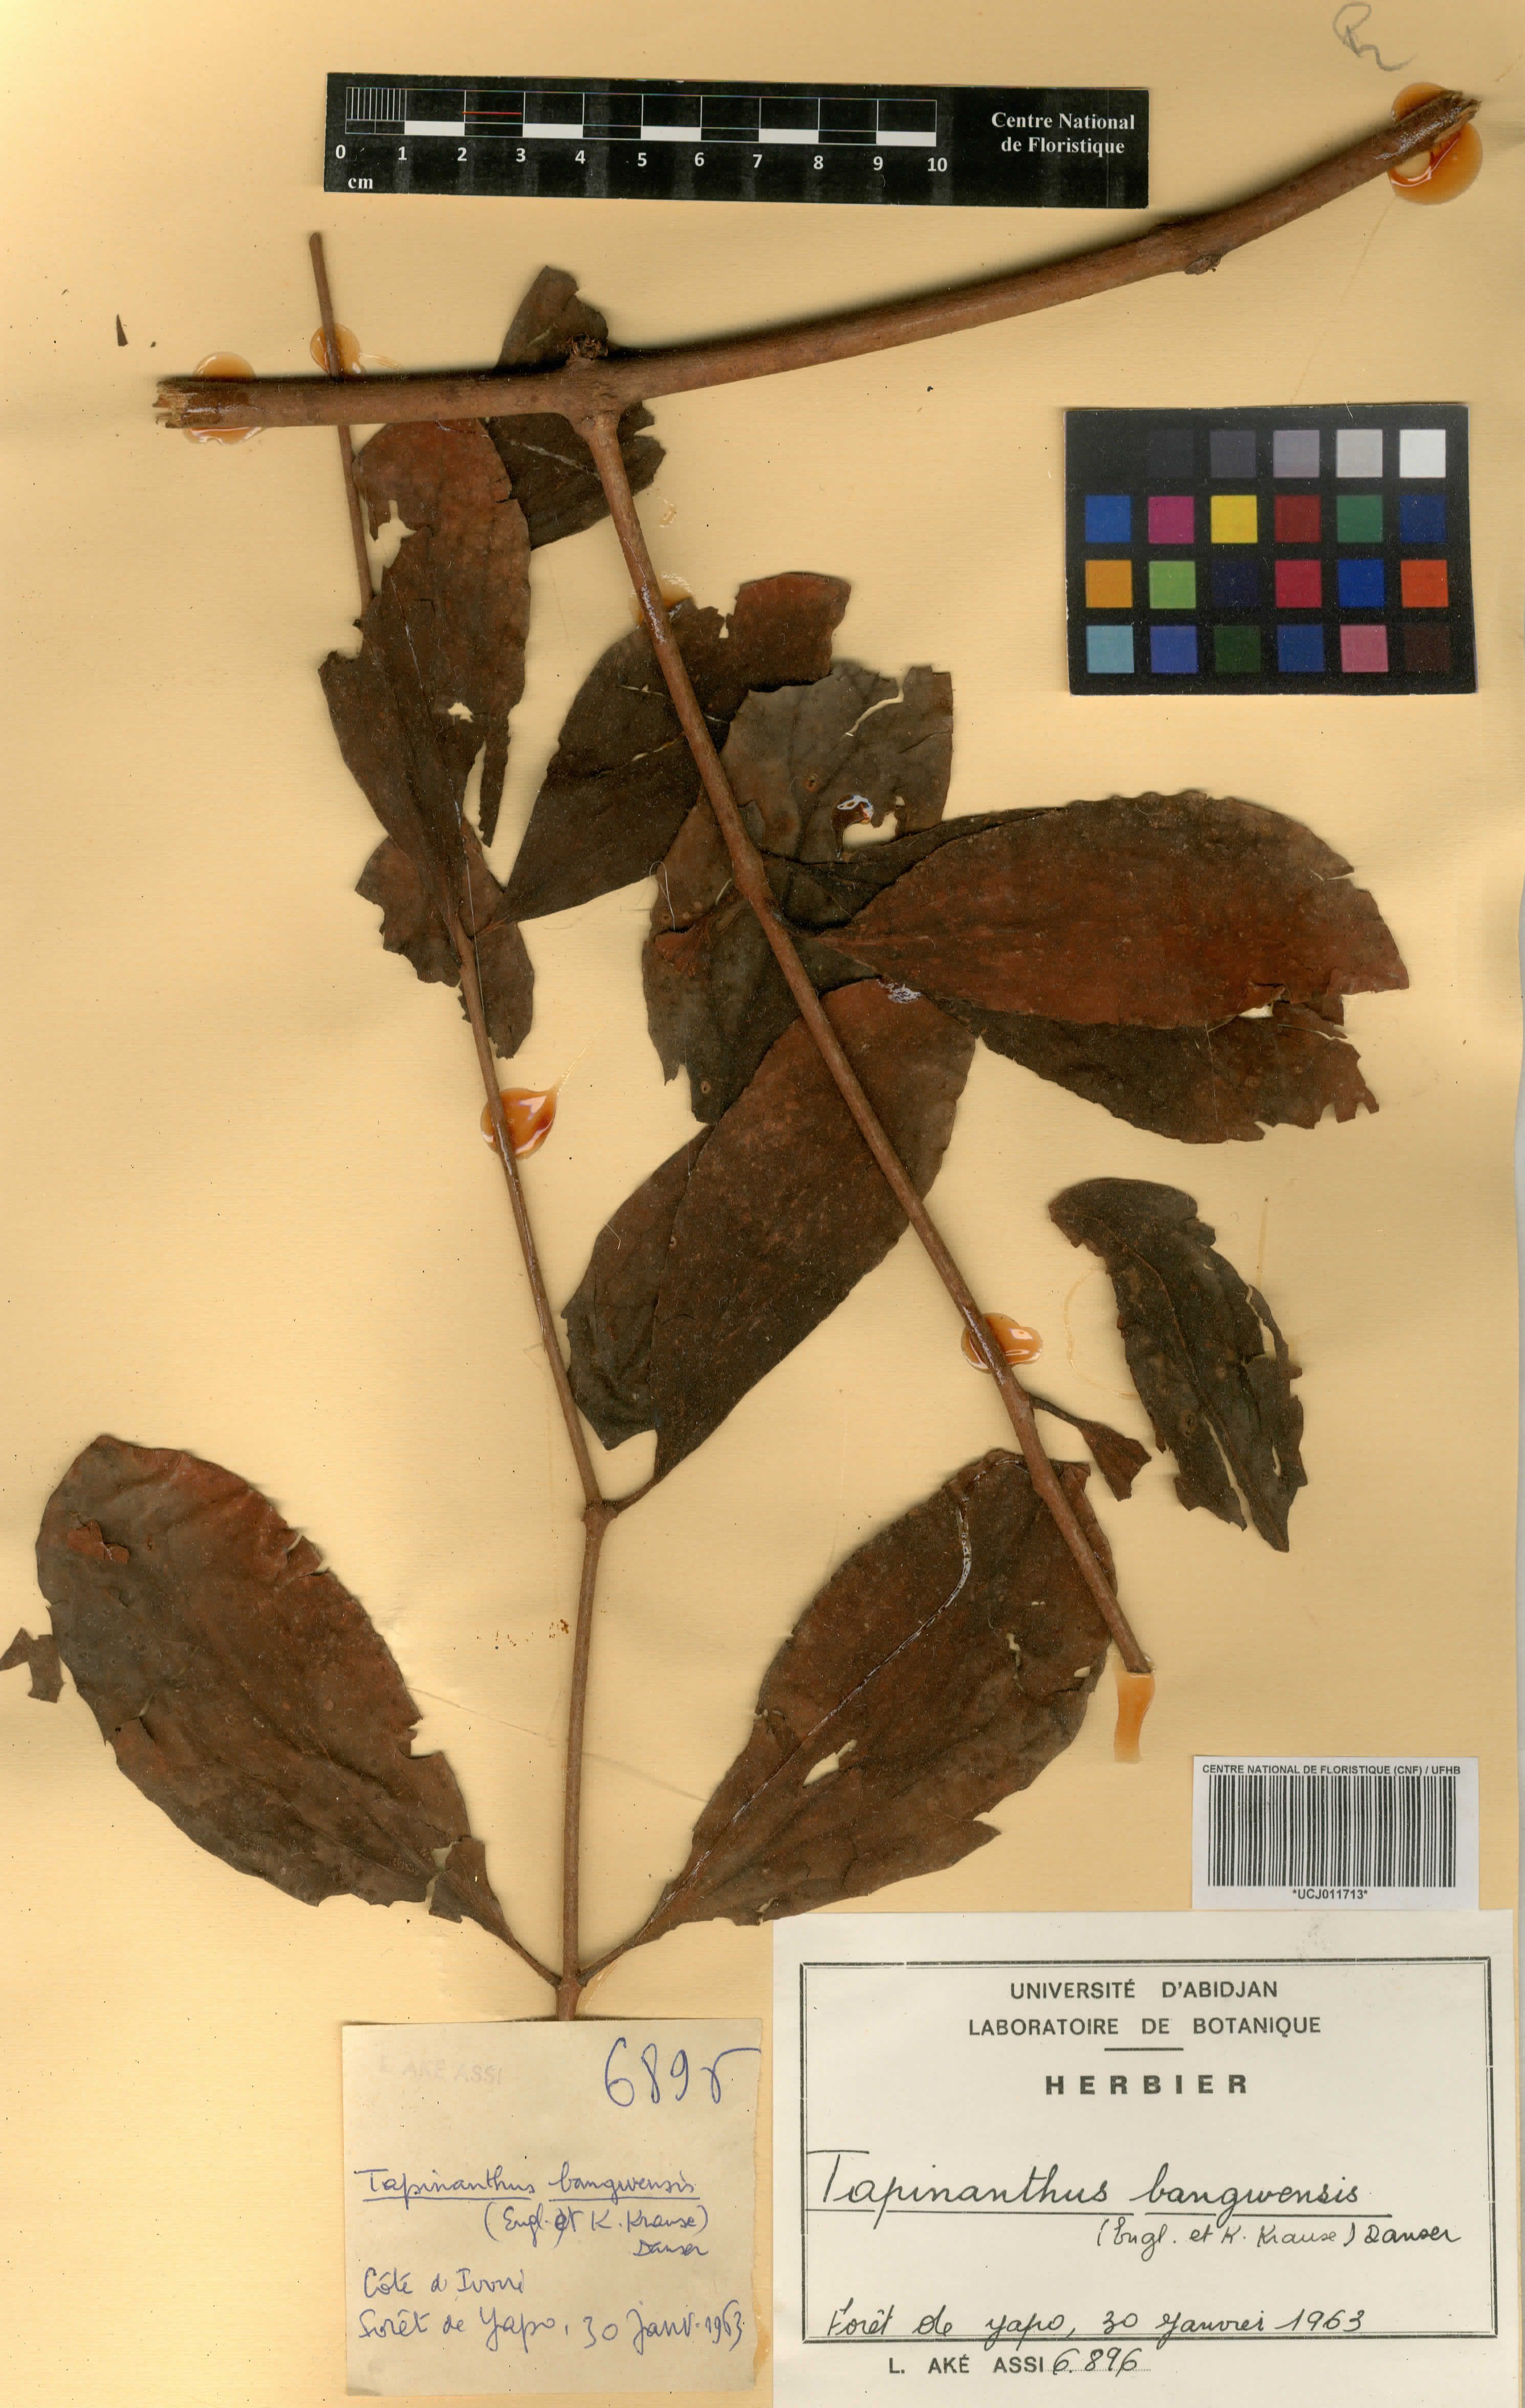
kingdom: Plantae
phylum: Tracheophyta
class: Magnoliopsida
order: Santalales
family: Loranthaceae
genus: Tapinanthus
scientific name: Tapinanthus bangwensis
